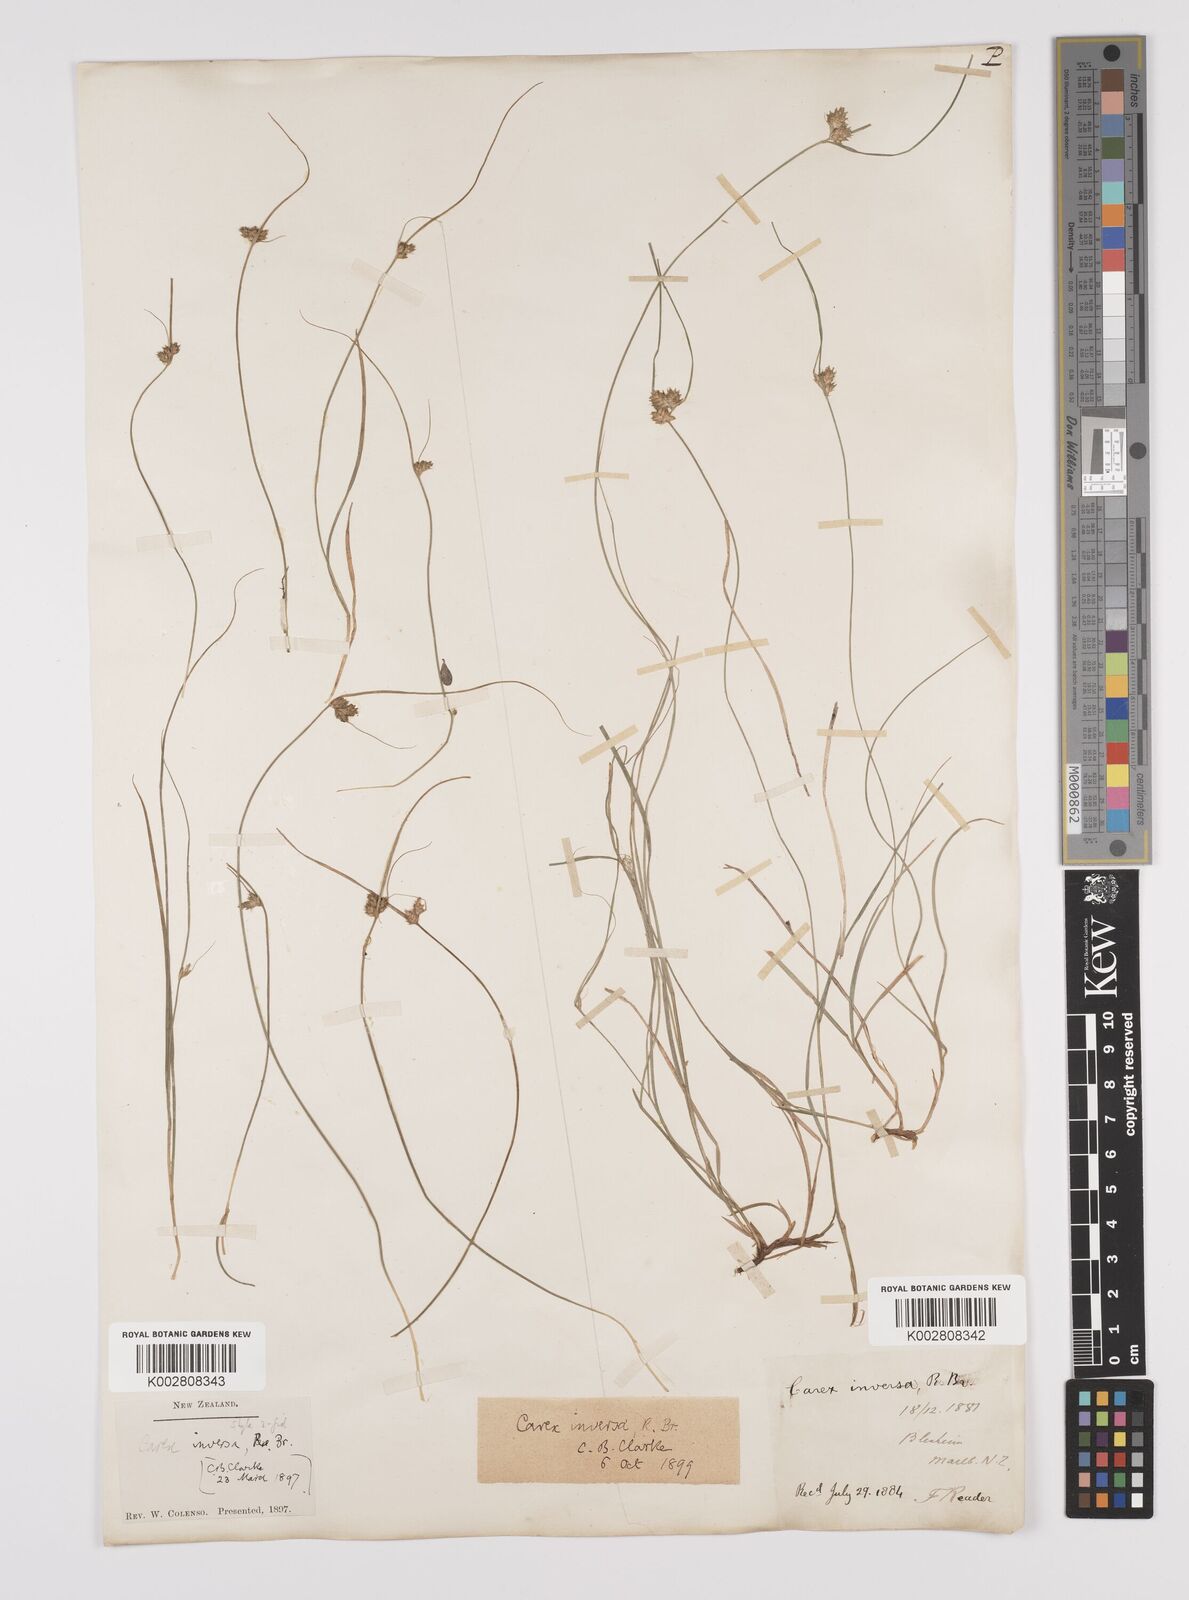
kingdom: Plantae
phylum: Tracheophyta
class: Liliopsida
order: Poales
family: Cyperaceae
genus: Carex
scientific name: Carex inversa
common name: Knob sedge
